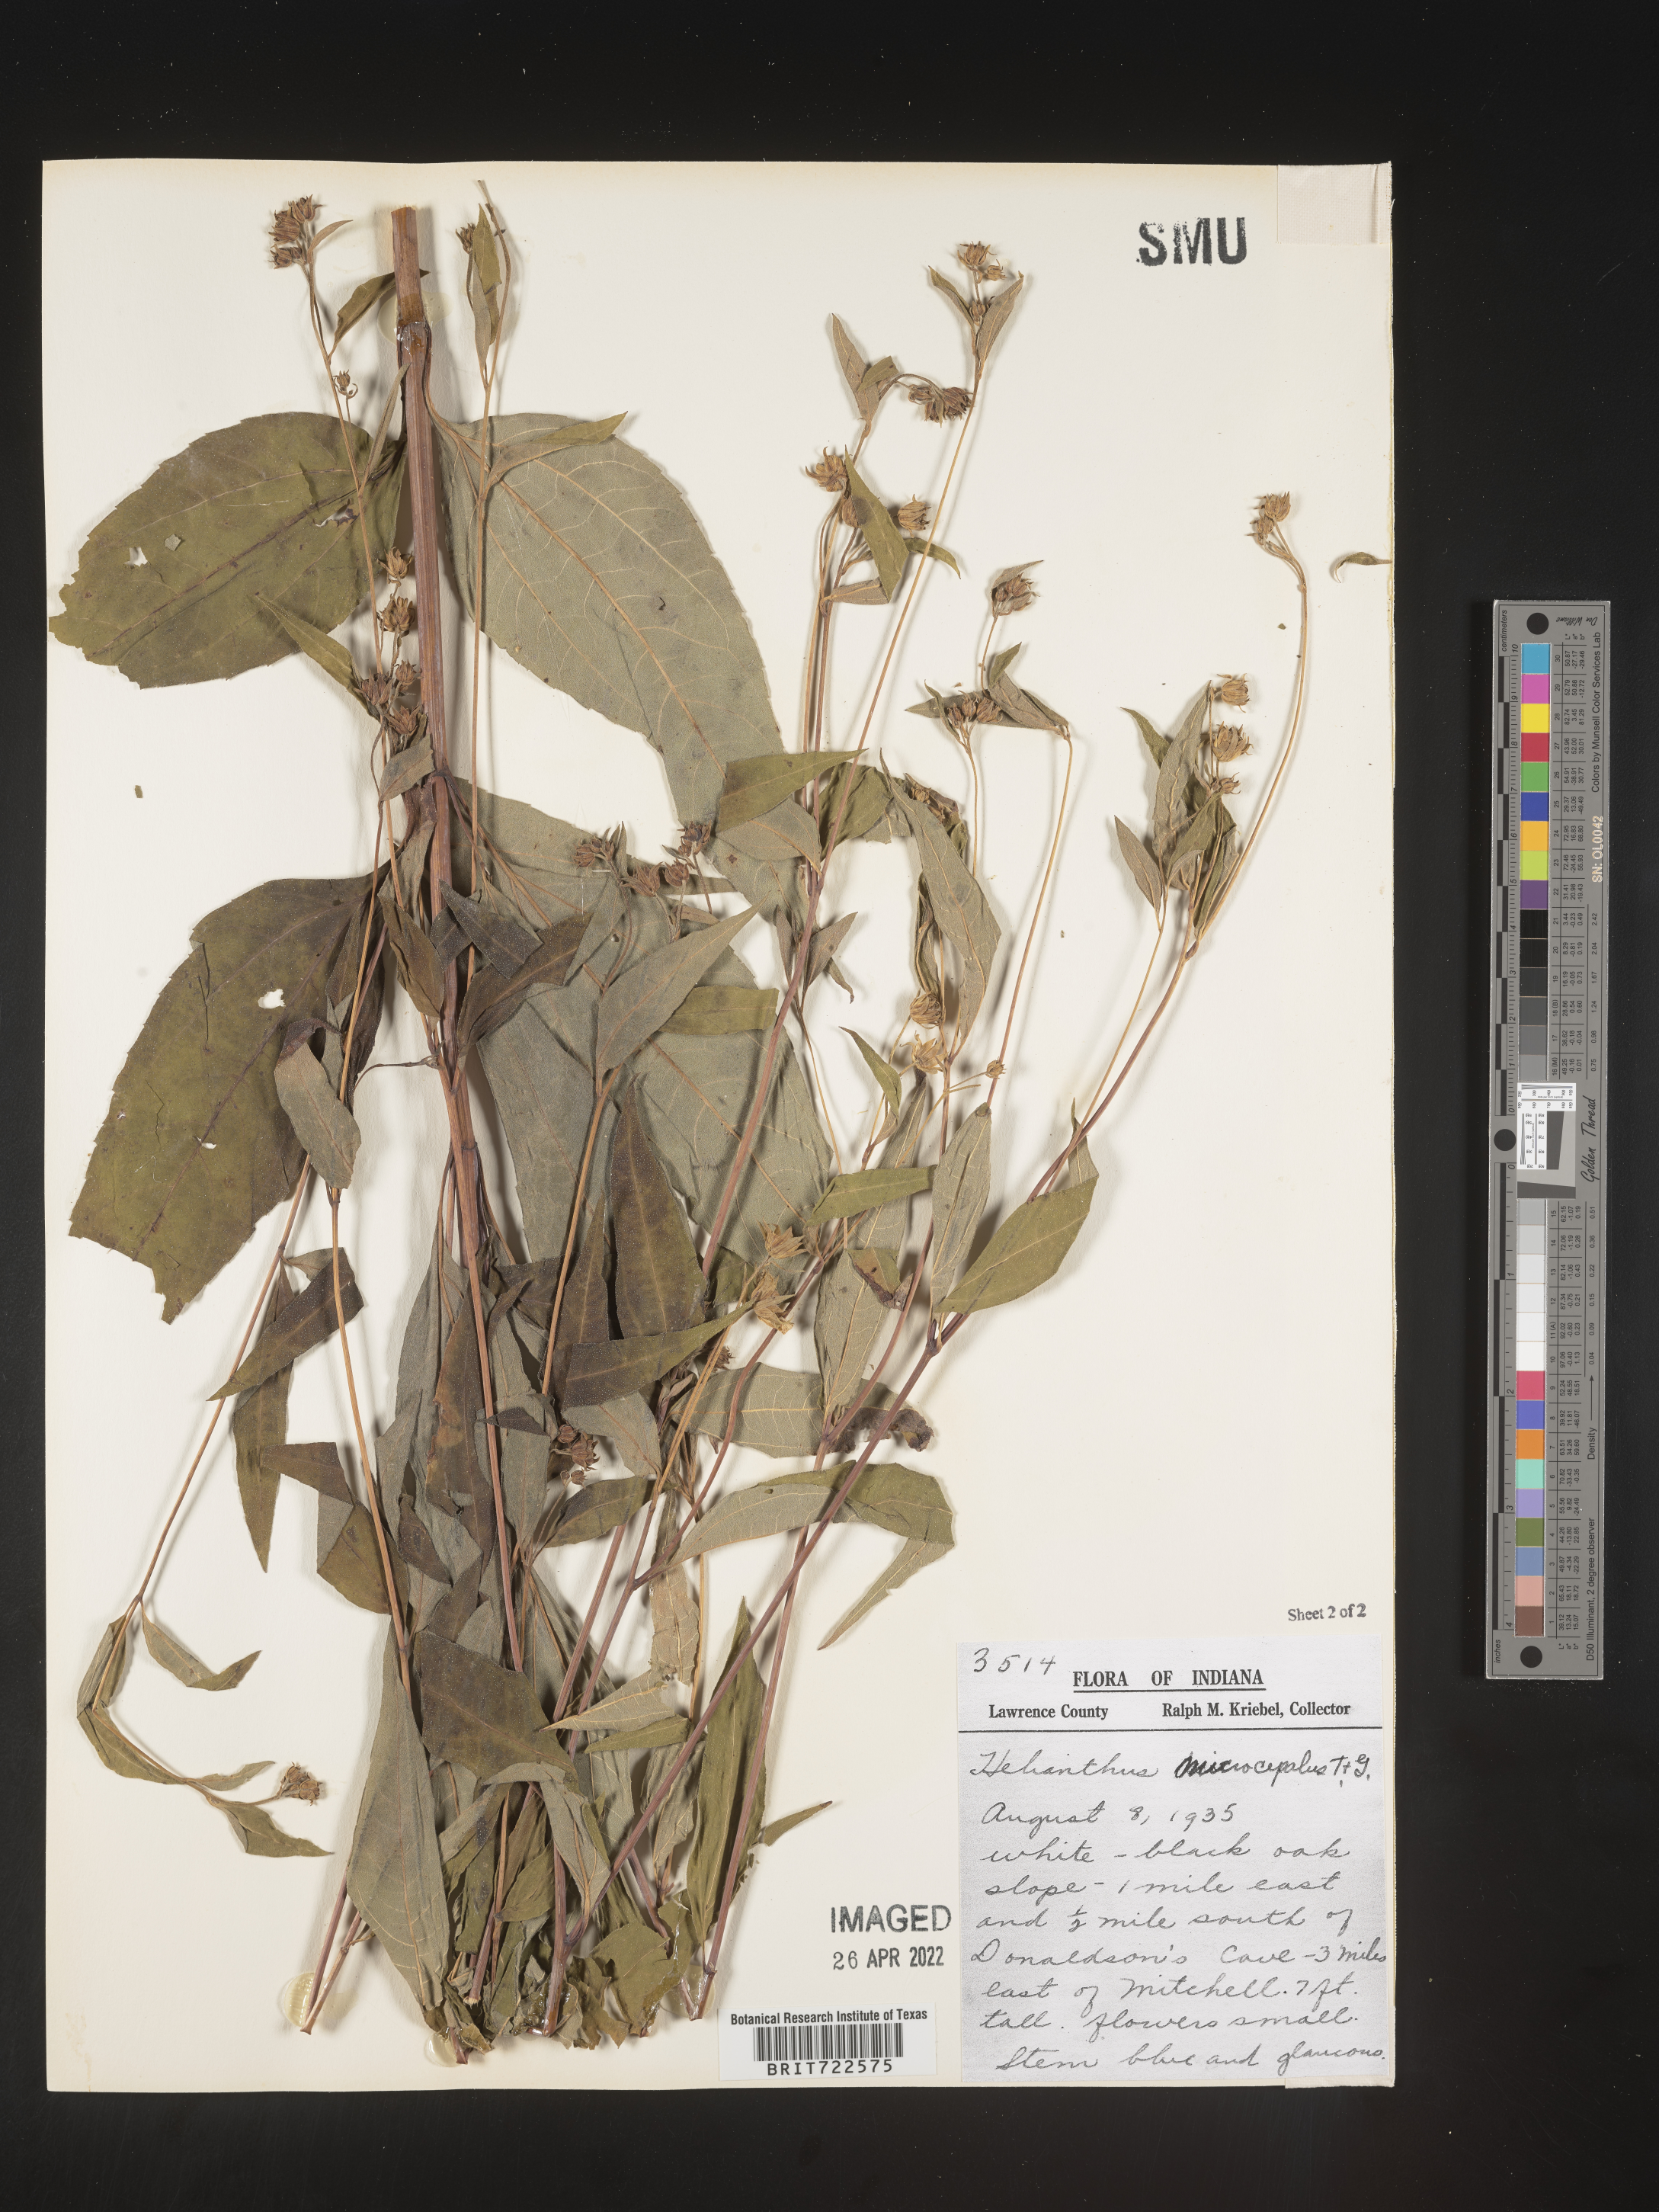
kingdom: Plantae
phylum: Tracheophyta
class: Magnoliopsida
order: Asterales
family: Asteraceae
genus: Helianthus
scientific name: Helianthus microcephalus
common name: Woodland sunflower
